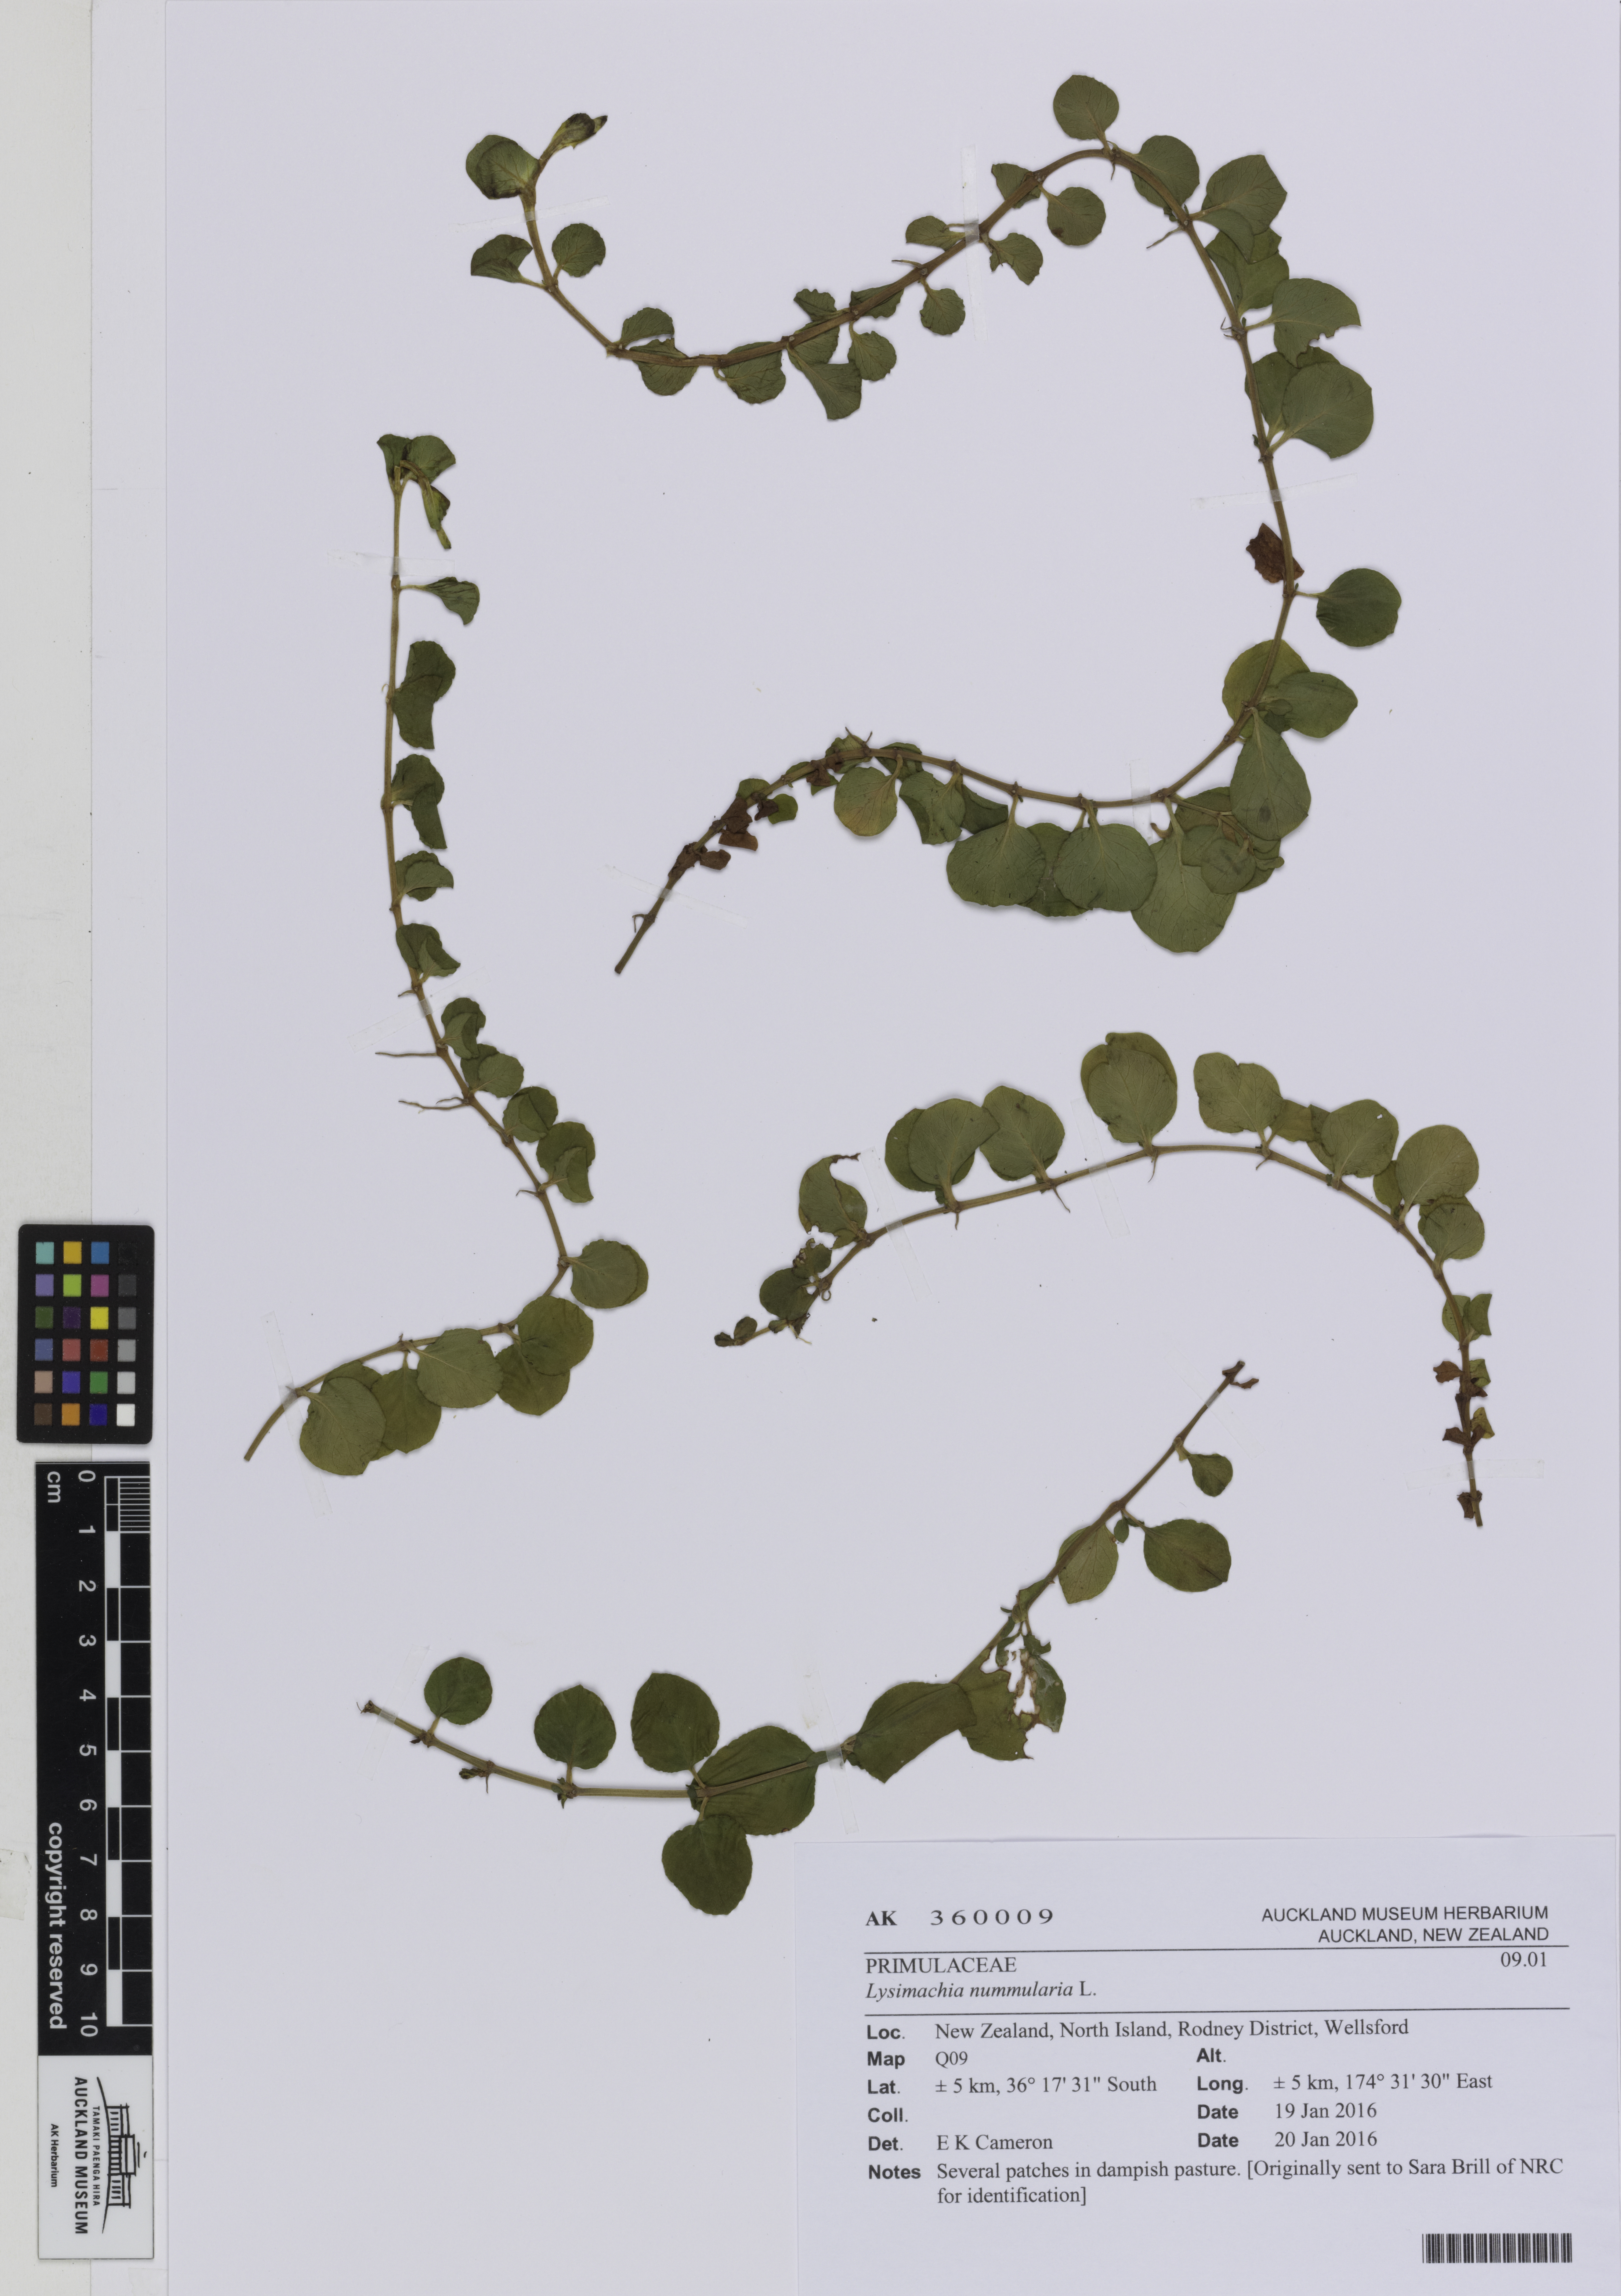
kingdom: Plantae
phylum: Tracheophyta
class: Magnoliopsida
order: Ericales
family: Primulaceae
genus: Lysimachia
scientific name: Lysimachia nummularia
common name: Moneywort
